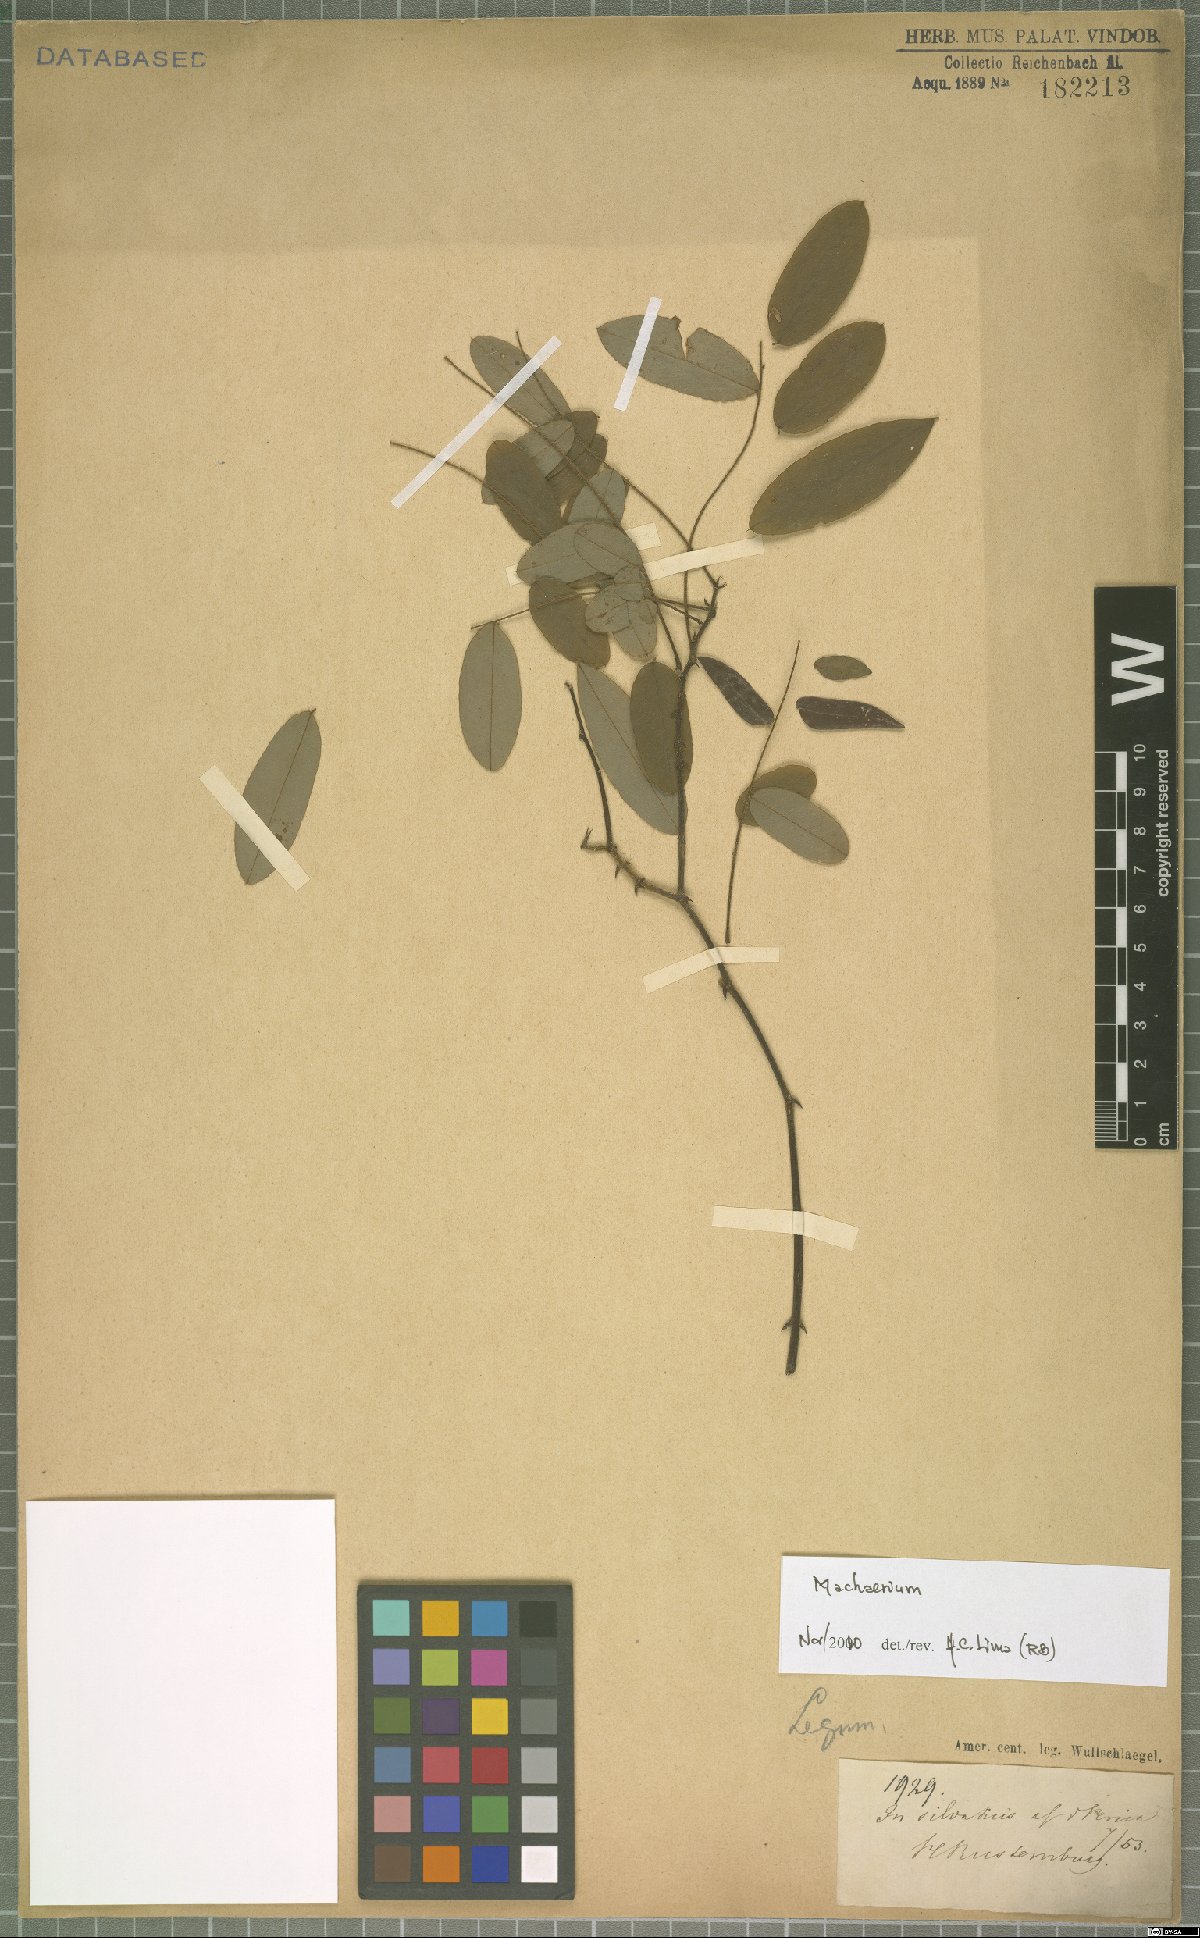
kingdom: Plantae
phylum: Tracheophyta
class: Magnoliopsida
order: Fabales
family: Fabaceae
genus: Machaerium
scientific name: Machaerium
